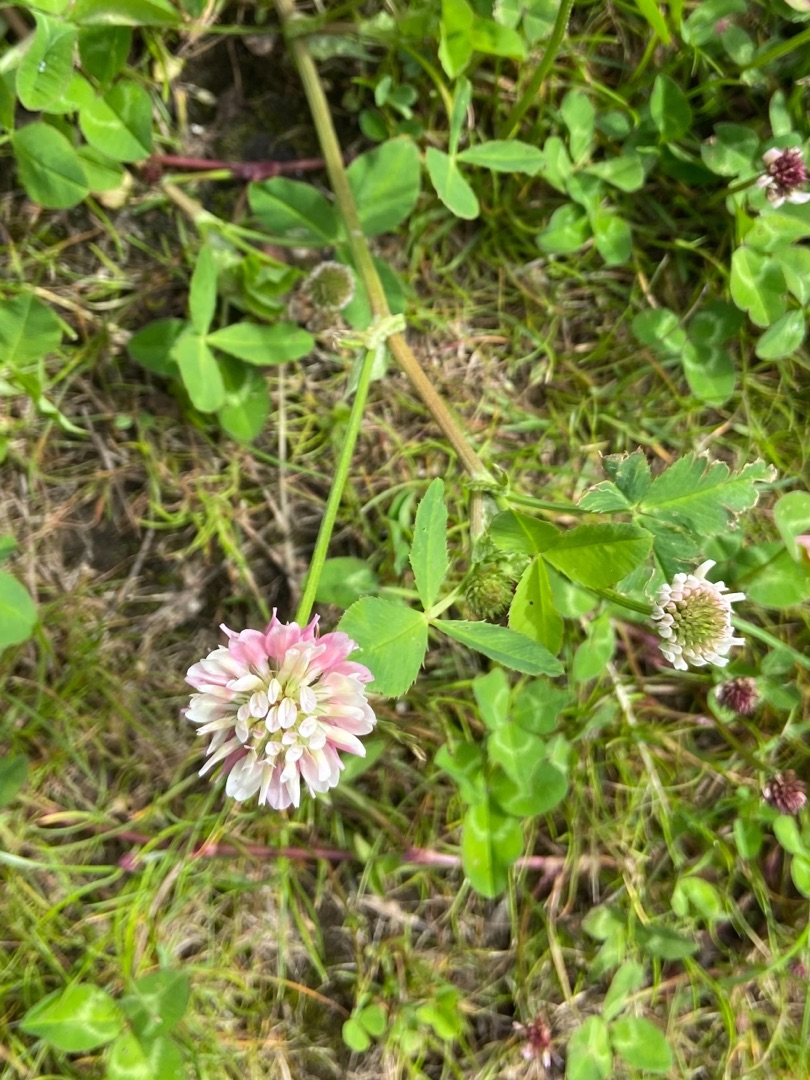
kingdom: Plantae
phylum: Tracheophyta
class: Magnoliopsida
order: Fabales
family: Fabaceae
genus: Trifolium
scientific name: Trifolium hybridum
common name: Alsike-kløver
